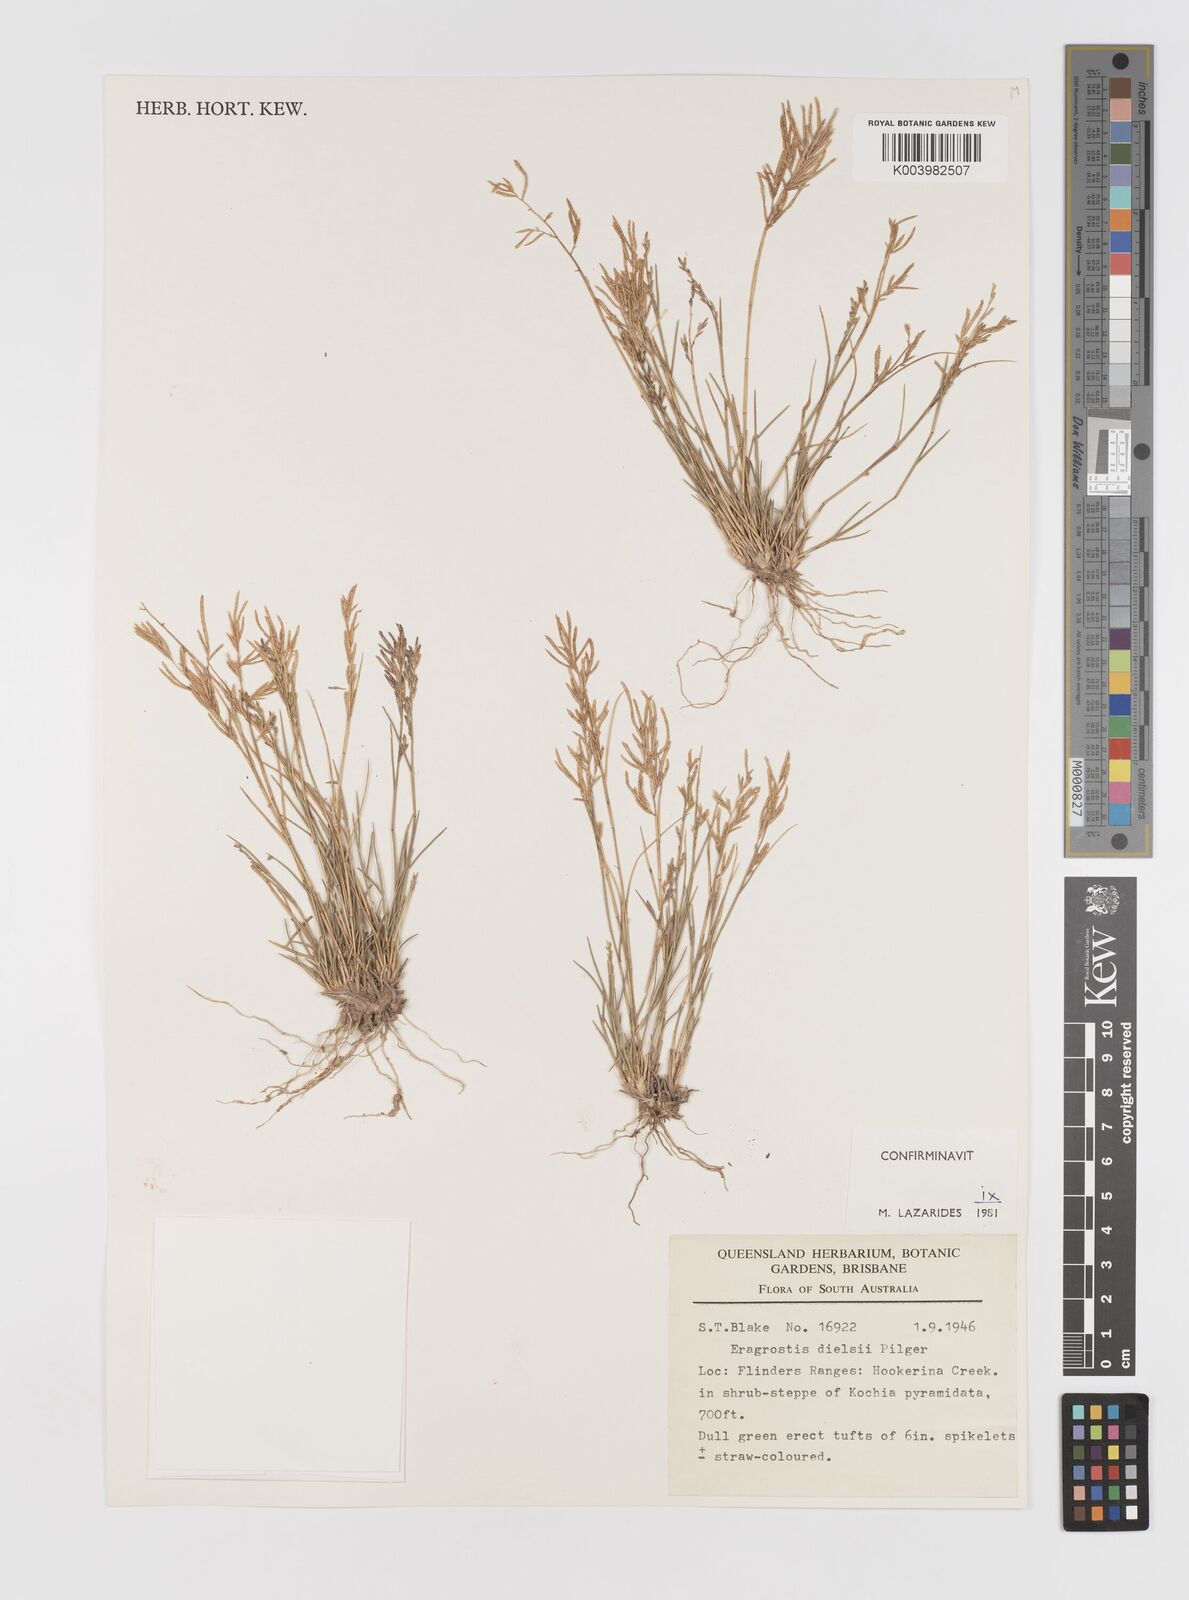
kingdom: Plantae
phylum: Tracheophyta
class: Liliopsida
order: Poales
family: Poaceae
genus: Eragrostis
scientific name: Eragrostis dielsii
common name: Lovegrass
